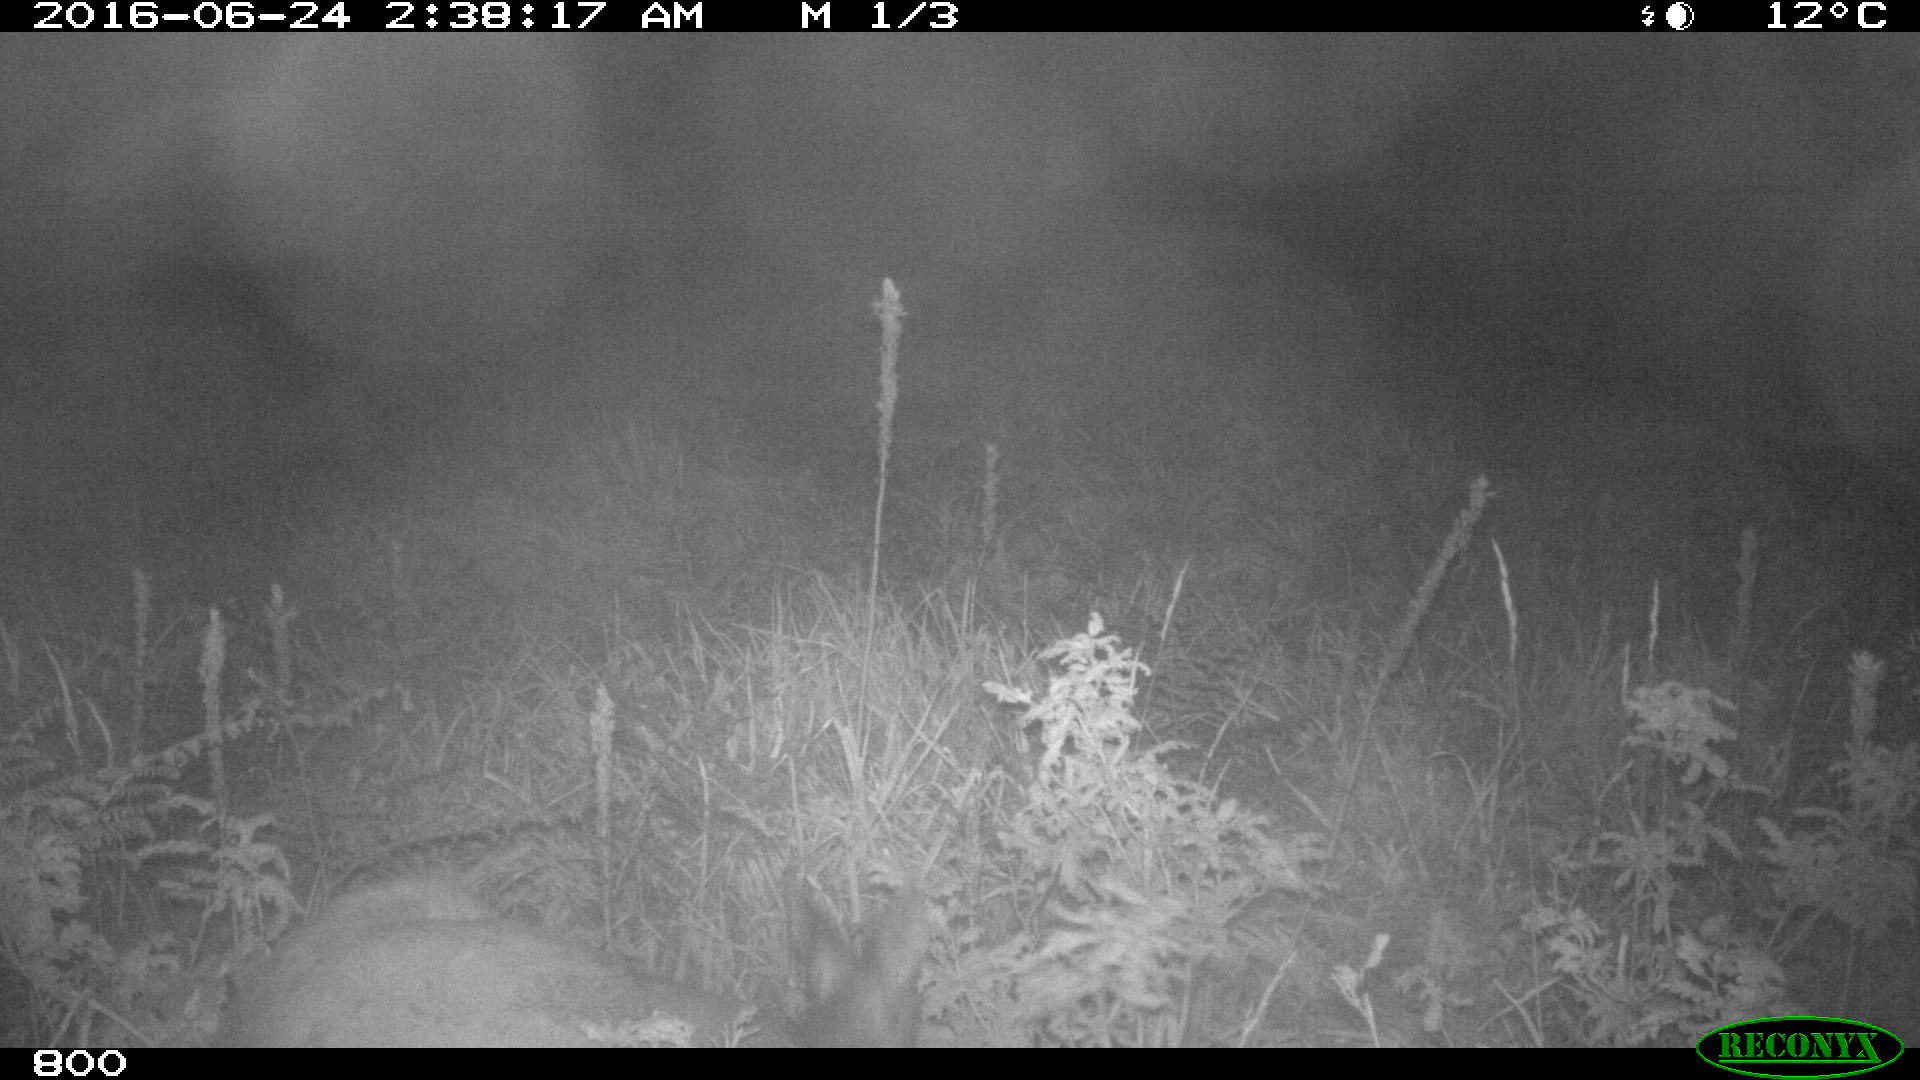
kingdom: Animalia
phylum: Chordata
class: Mammalia
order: Artiodactyla
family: Cervidae
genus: Capreolus
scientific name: Capreolus capreolus
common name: Western roe deer
